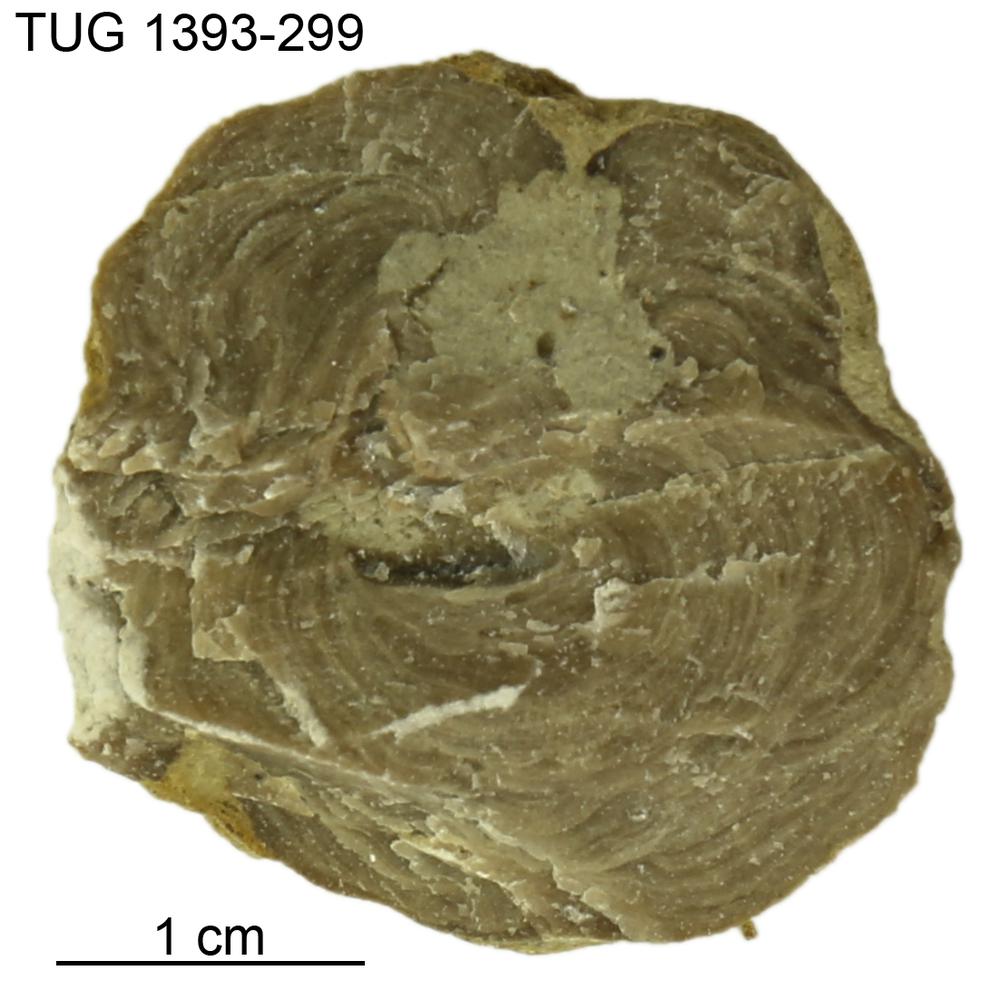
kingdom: Animalia
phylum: Bryozoa
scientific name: Bryozoa
